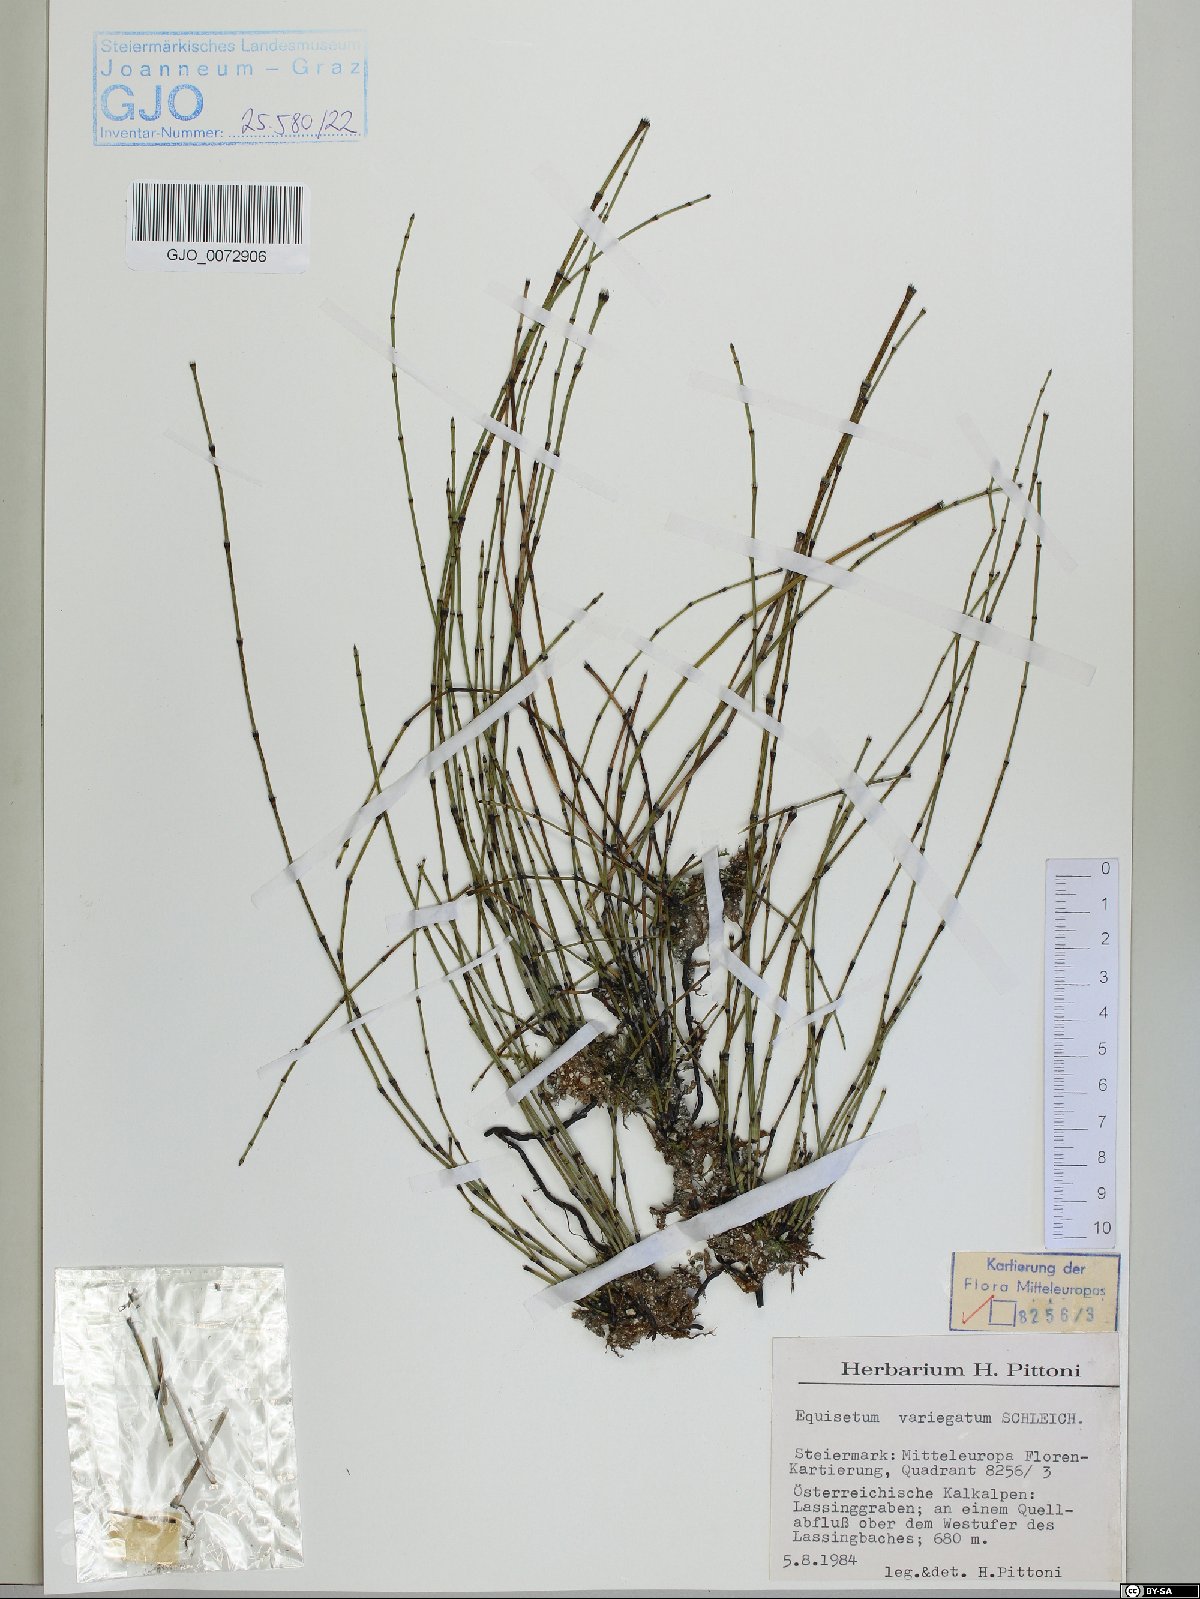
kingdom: Plantae
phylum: Tracheophyta
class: Polypodiopsida
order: Equisetales
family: Equisetaceae
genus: Equisetum
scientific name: Equisetum variegatum
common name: Variegated horsetail
